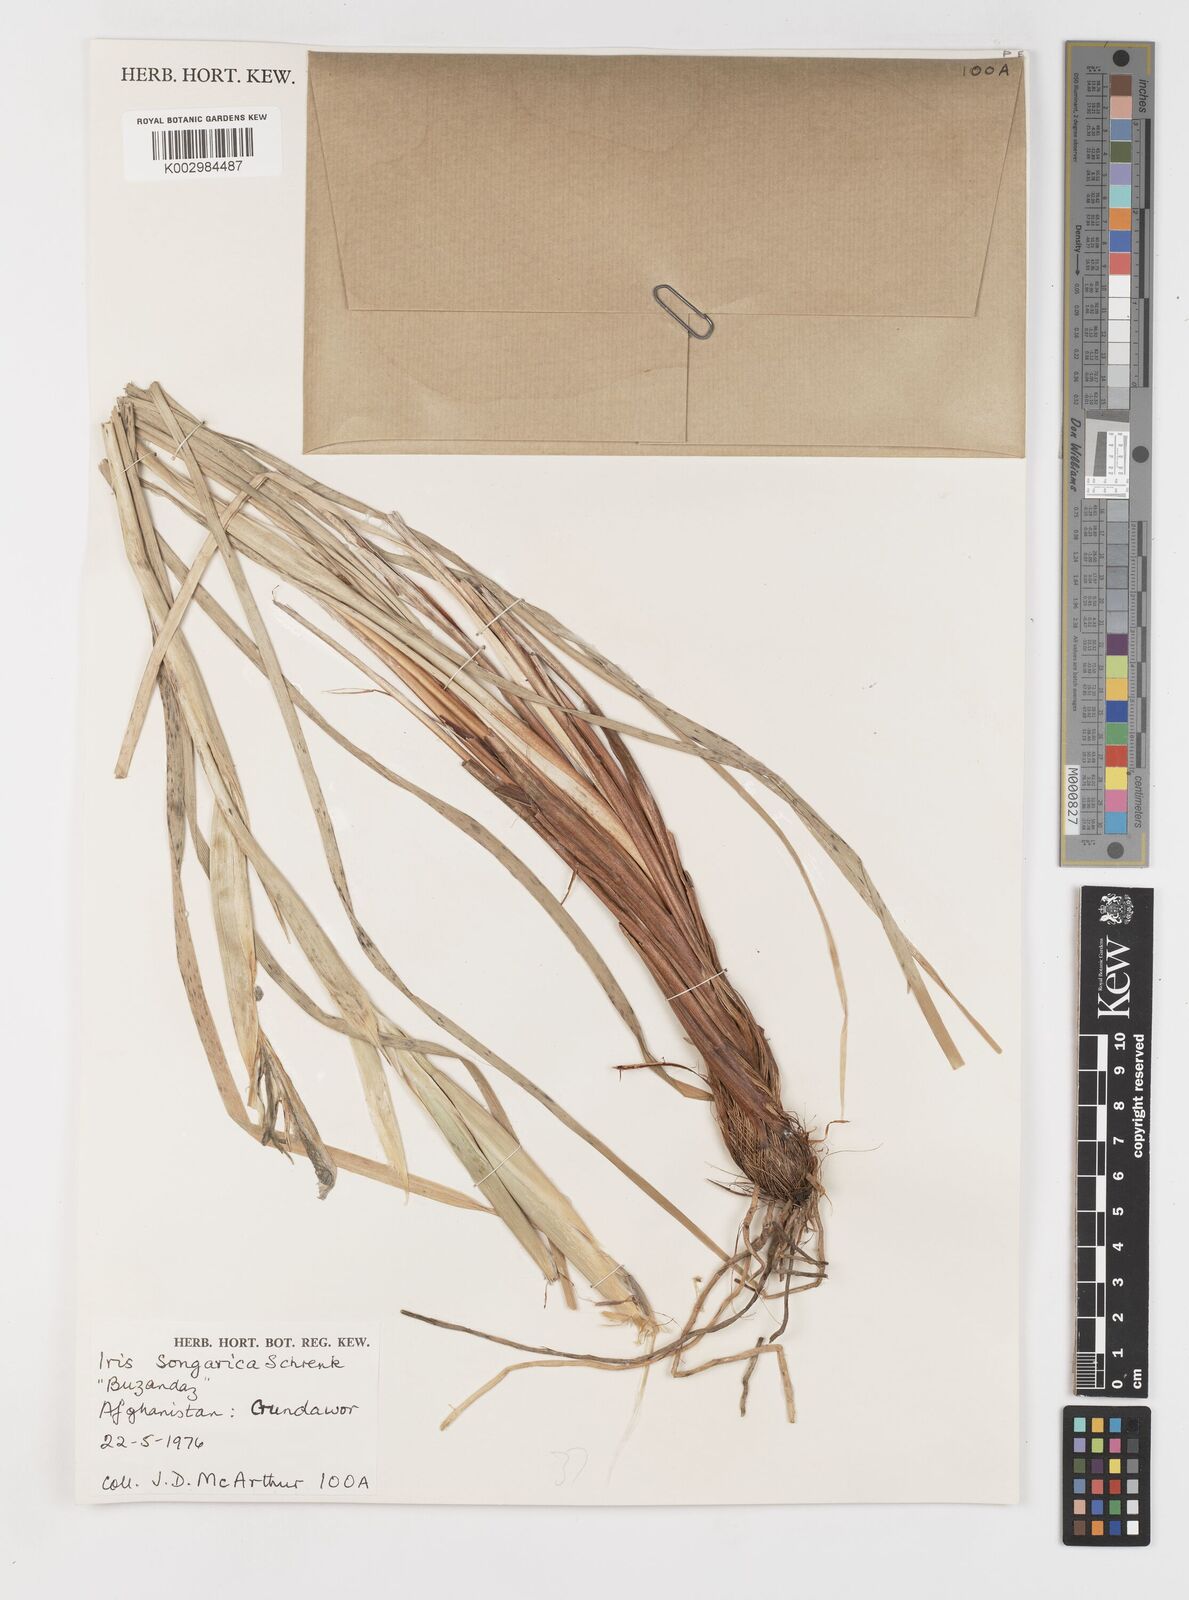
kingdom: Plantae
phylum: Tracheophyta
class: Liliopsida
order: Asparagales
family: Iridaceae
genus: Iris
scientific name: Iris songarica
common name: Songar iris
